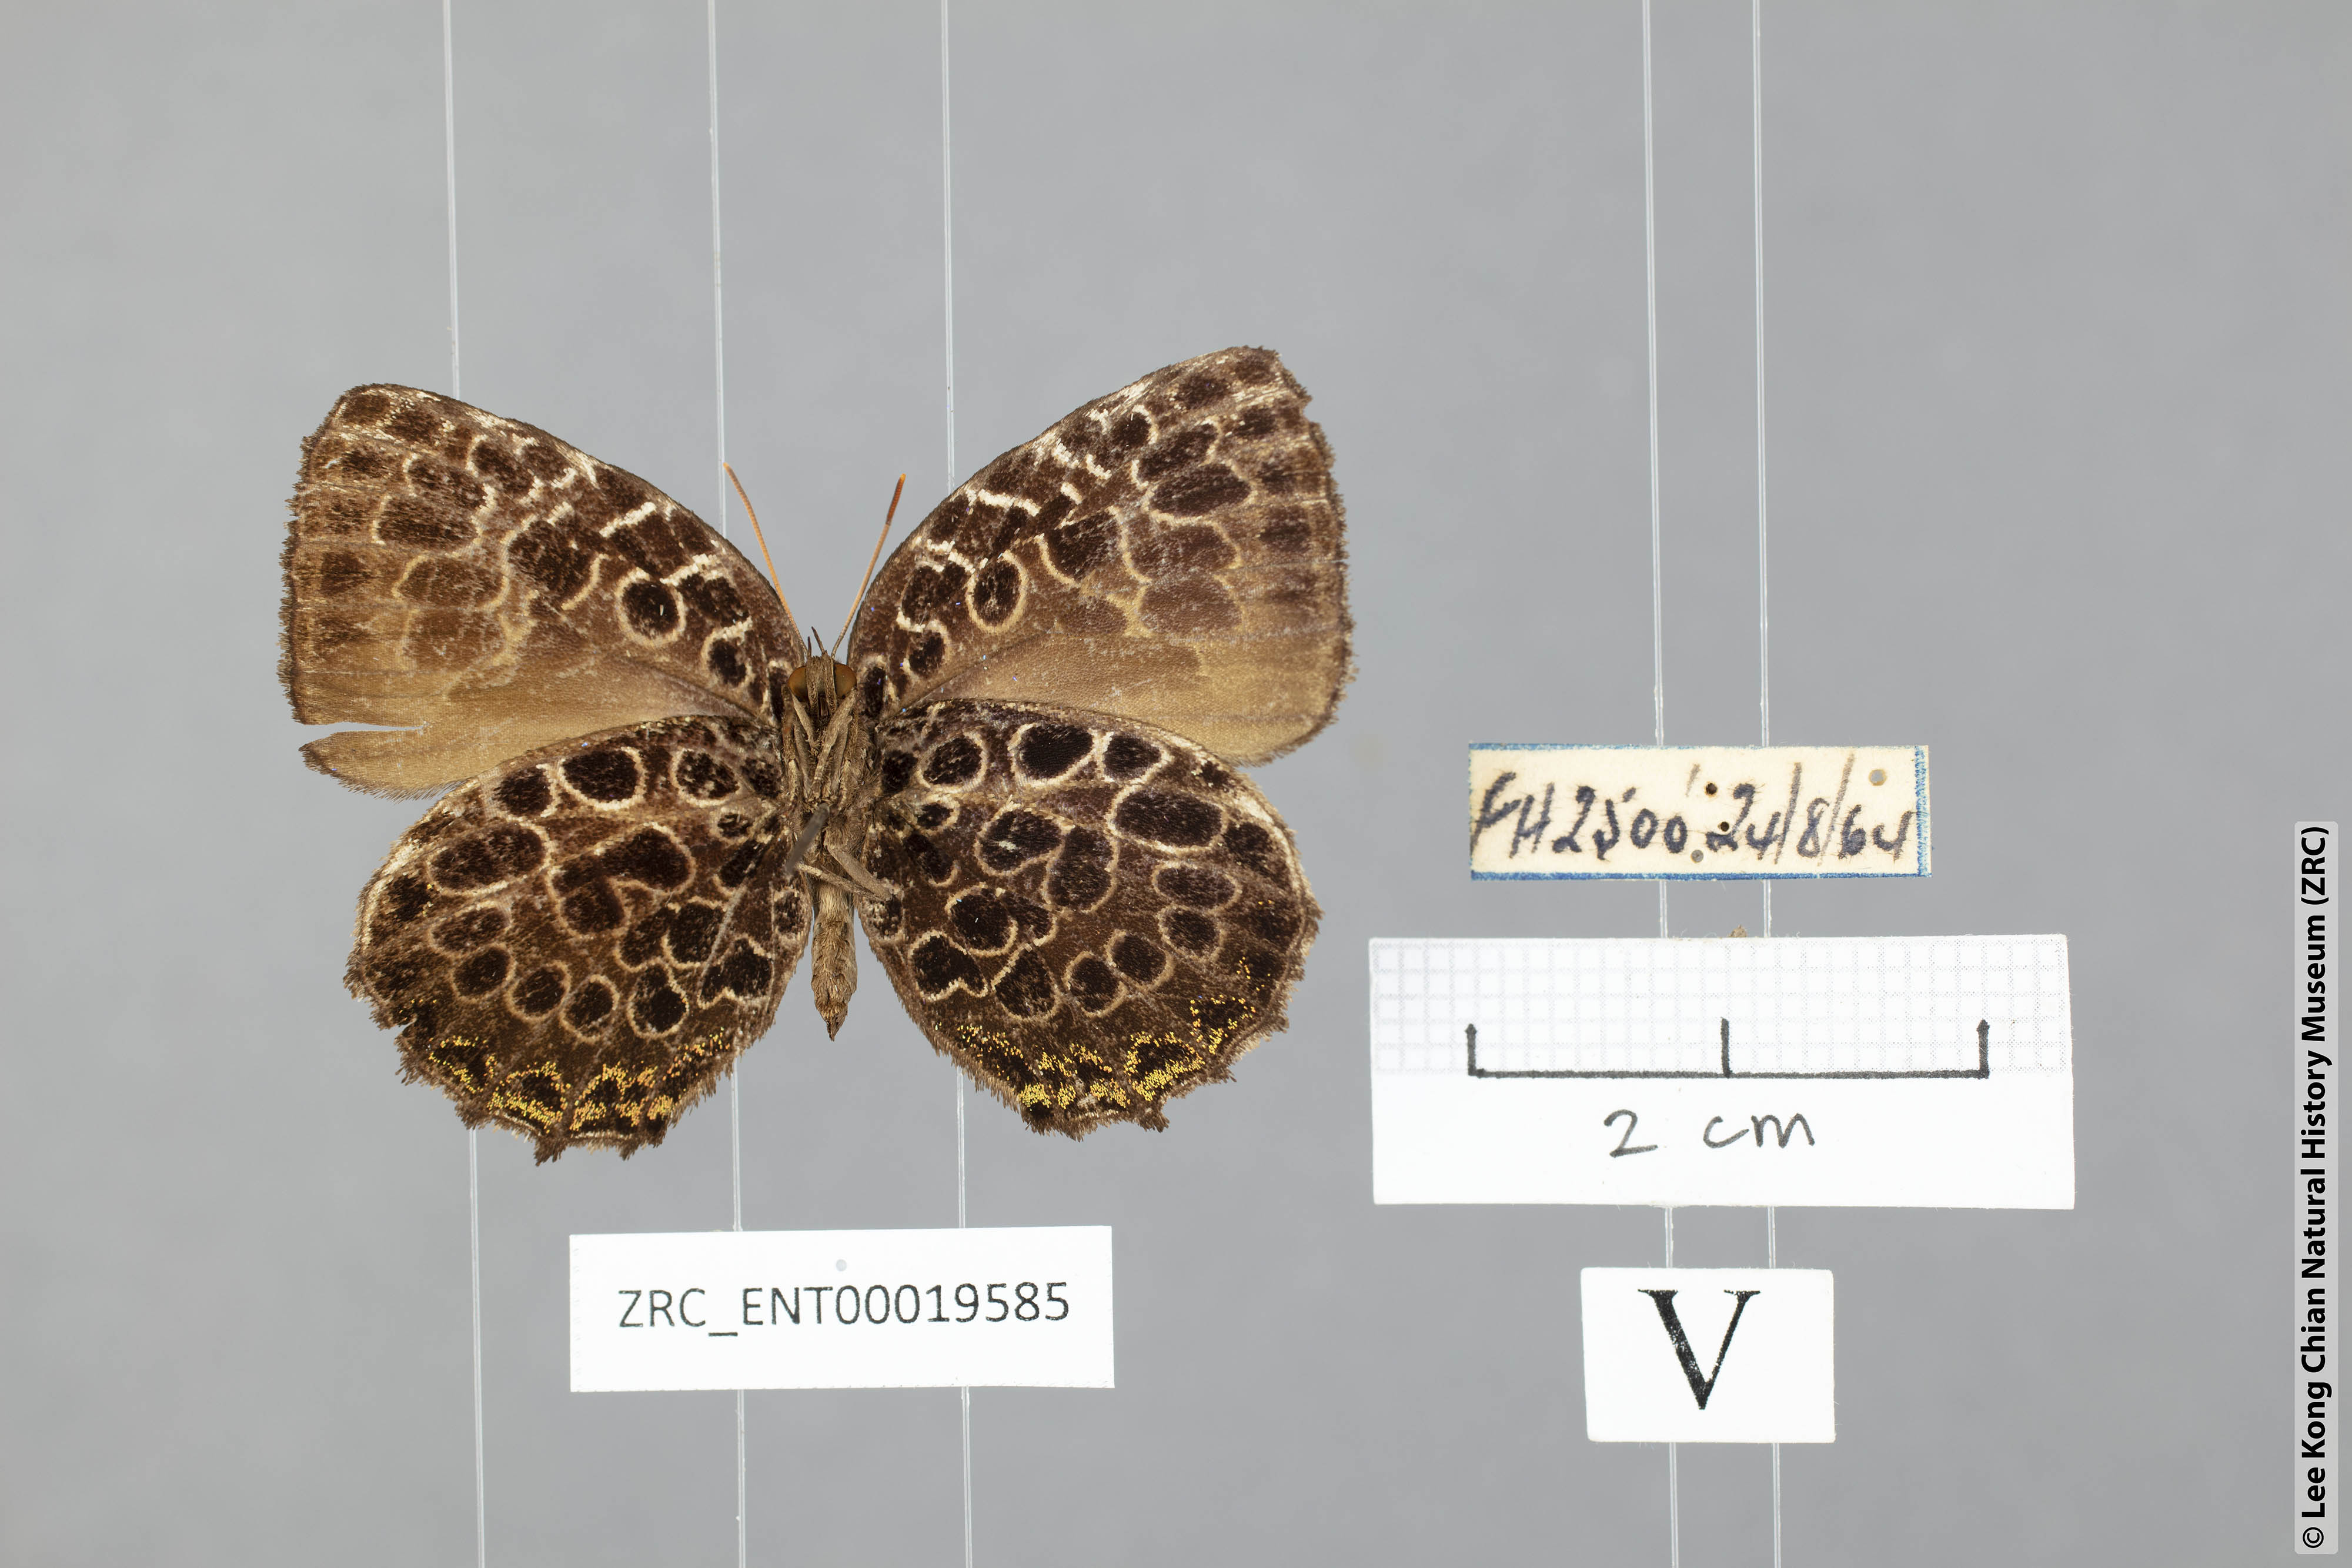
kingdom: Animalia
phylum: Arthropoda
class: Insecta
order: Lepidoptera
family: Lycaenidae
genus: Arhopala
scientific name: Arhopala kinabala
